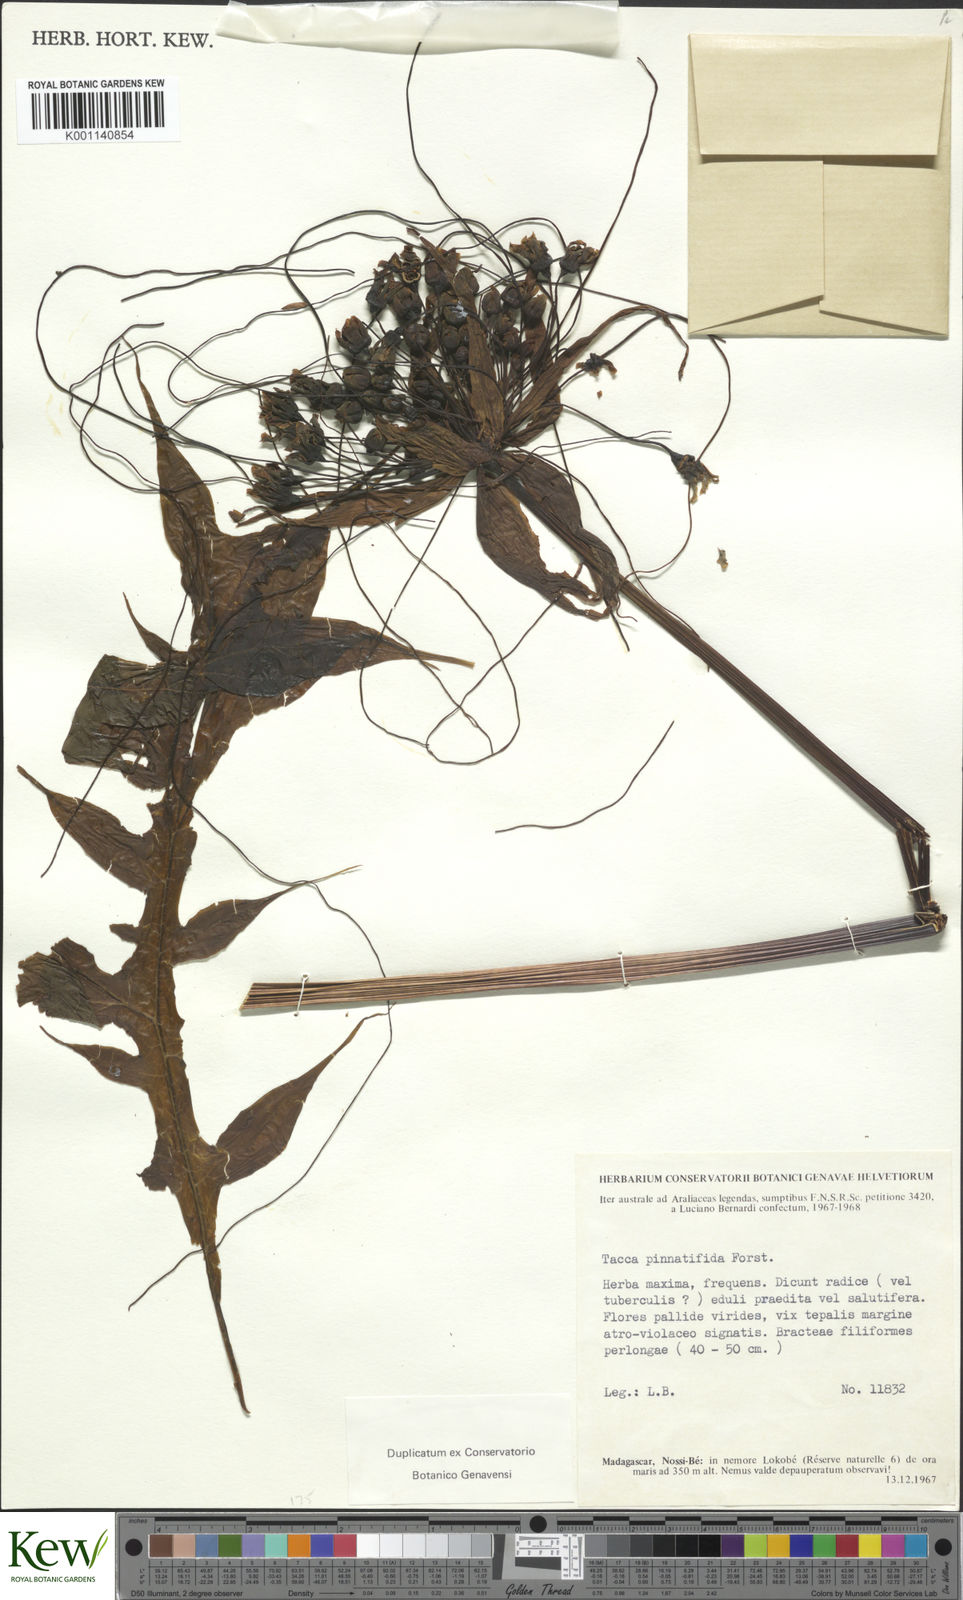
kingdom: Plantae
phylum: Tracheophyta
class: Liliopsida
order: Dioscoreales
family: Dioscoreaceae
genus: Tacca
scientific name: Tacca
